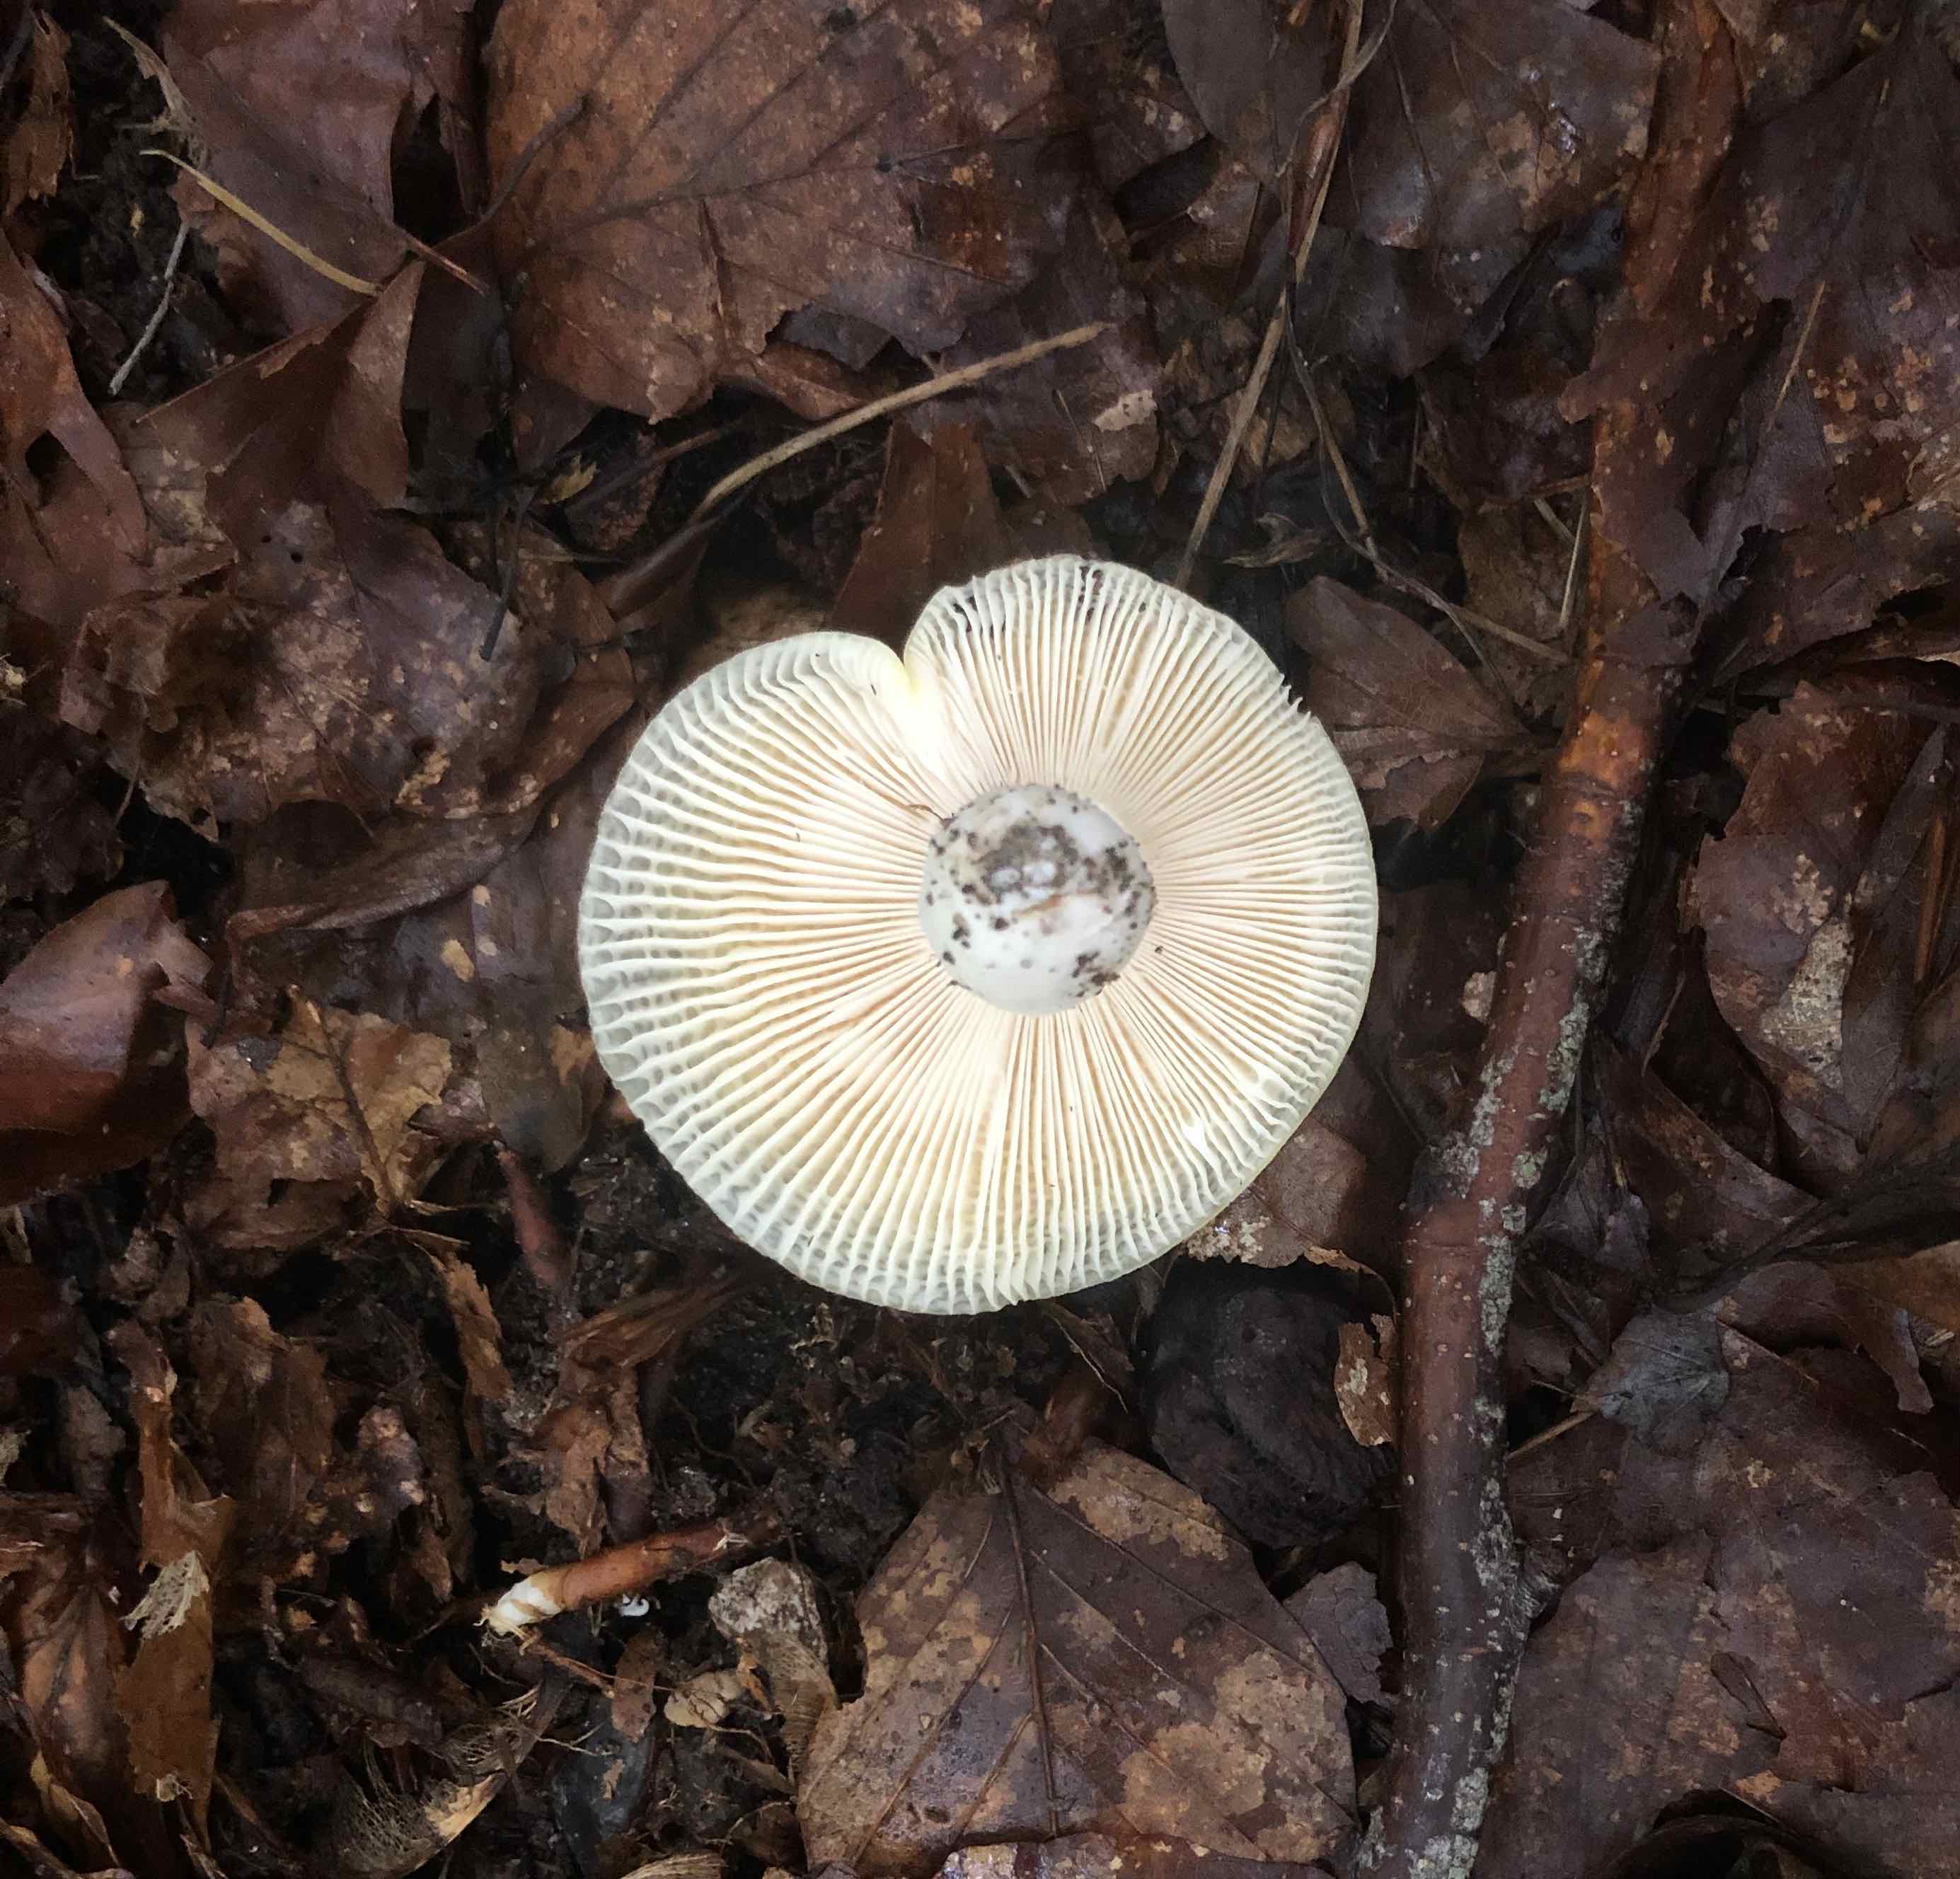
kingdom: Fungi
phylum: Basidiomycota
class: Agaricomycetes
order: Russulales
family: Russulaceae
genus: Russula
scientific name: Russula violeipes
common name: ferskengul skørhat
